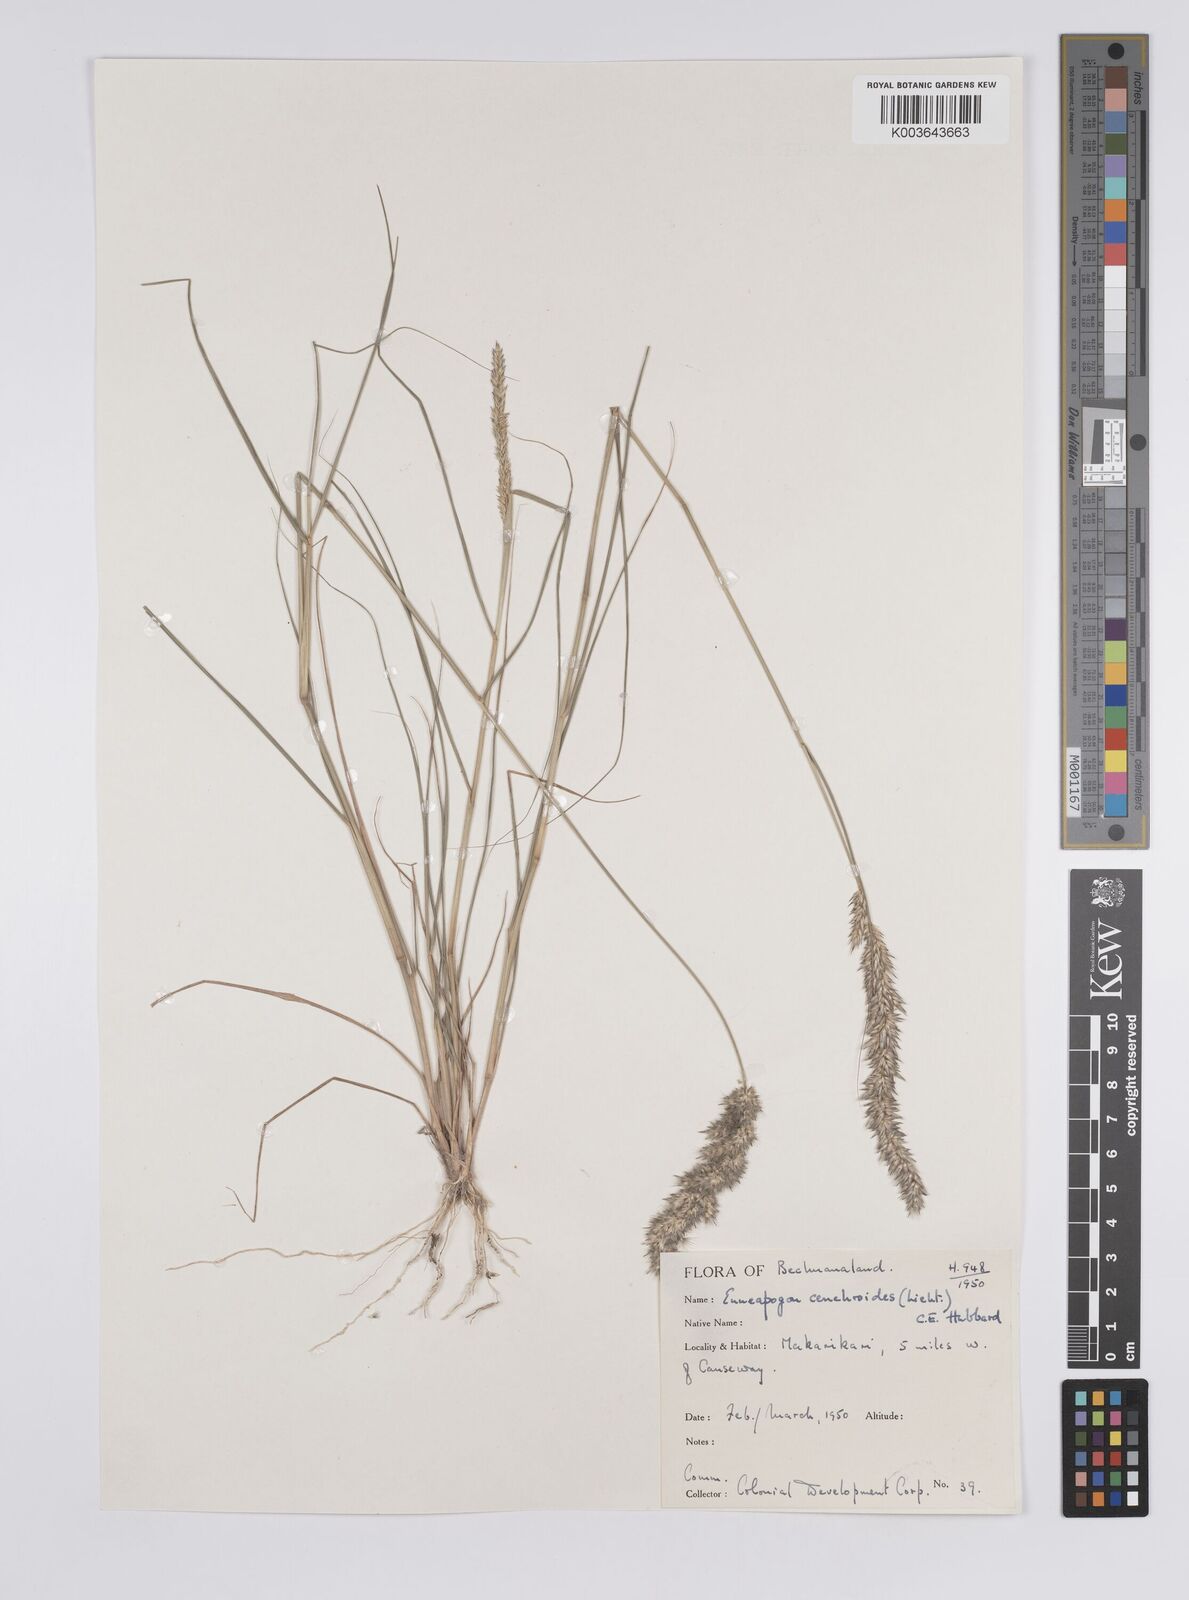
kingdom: Plantae
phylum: Tracheophyta
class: Liliopsida
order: Poales
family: Poaceae
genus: Enneapogon
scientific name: Enneapogon cenchroides
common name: Soft feather pappusgrass
